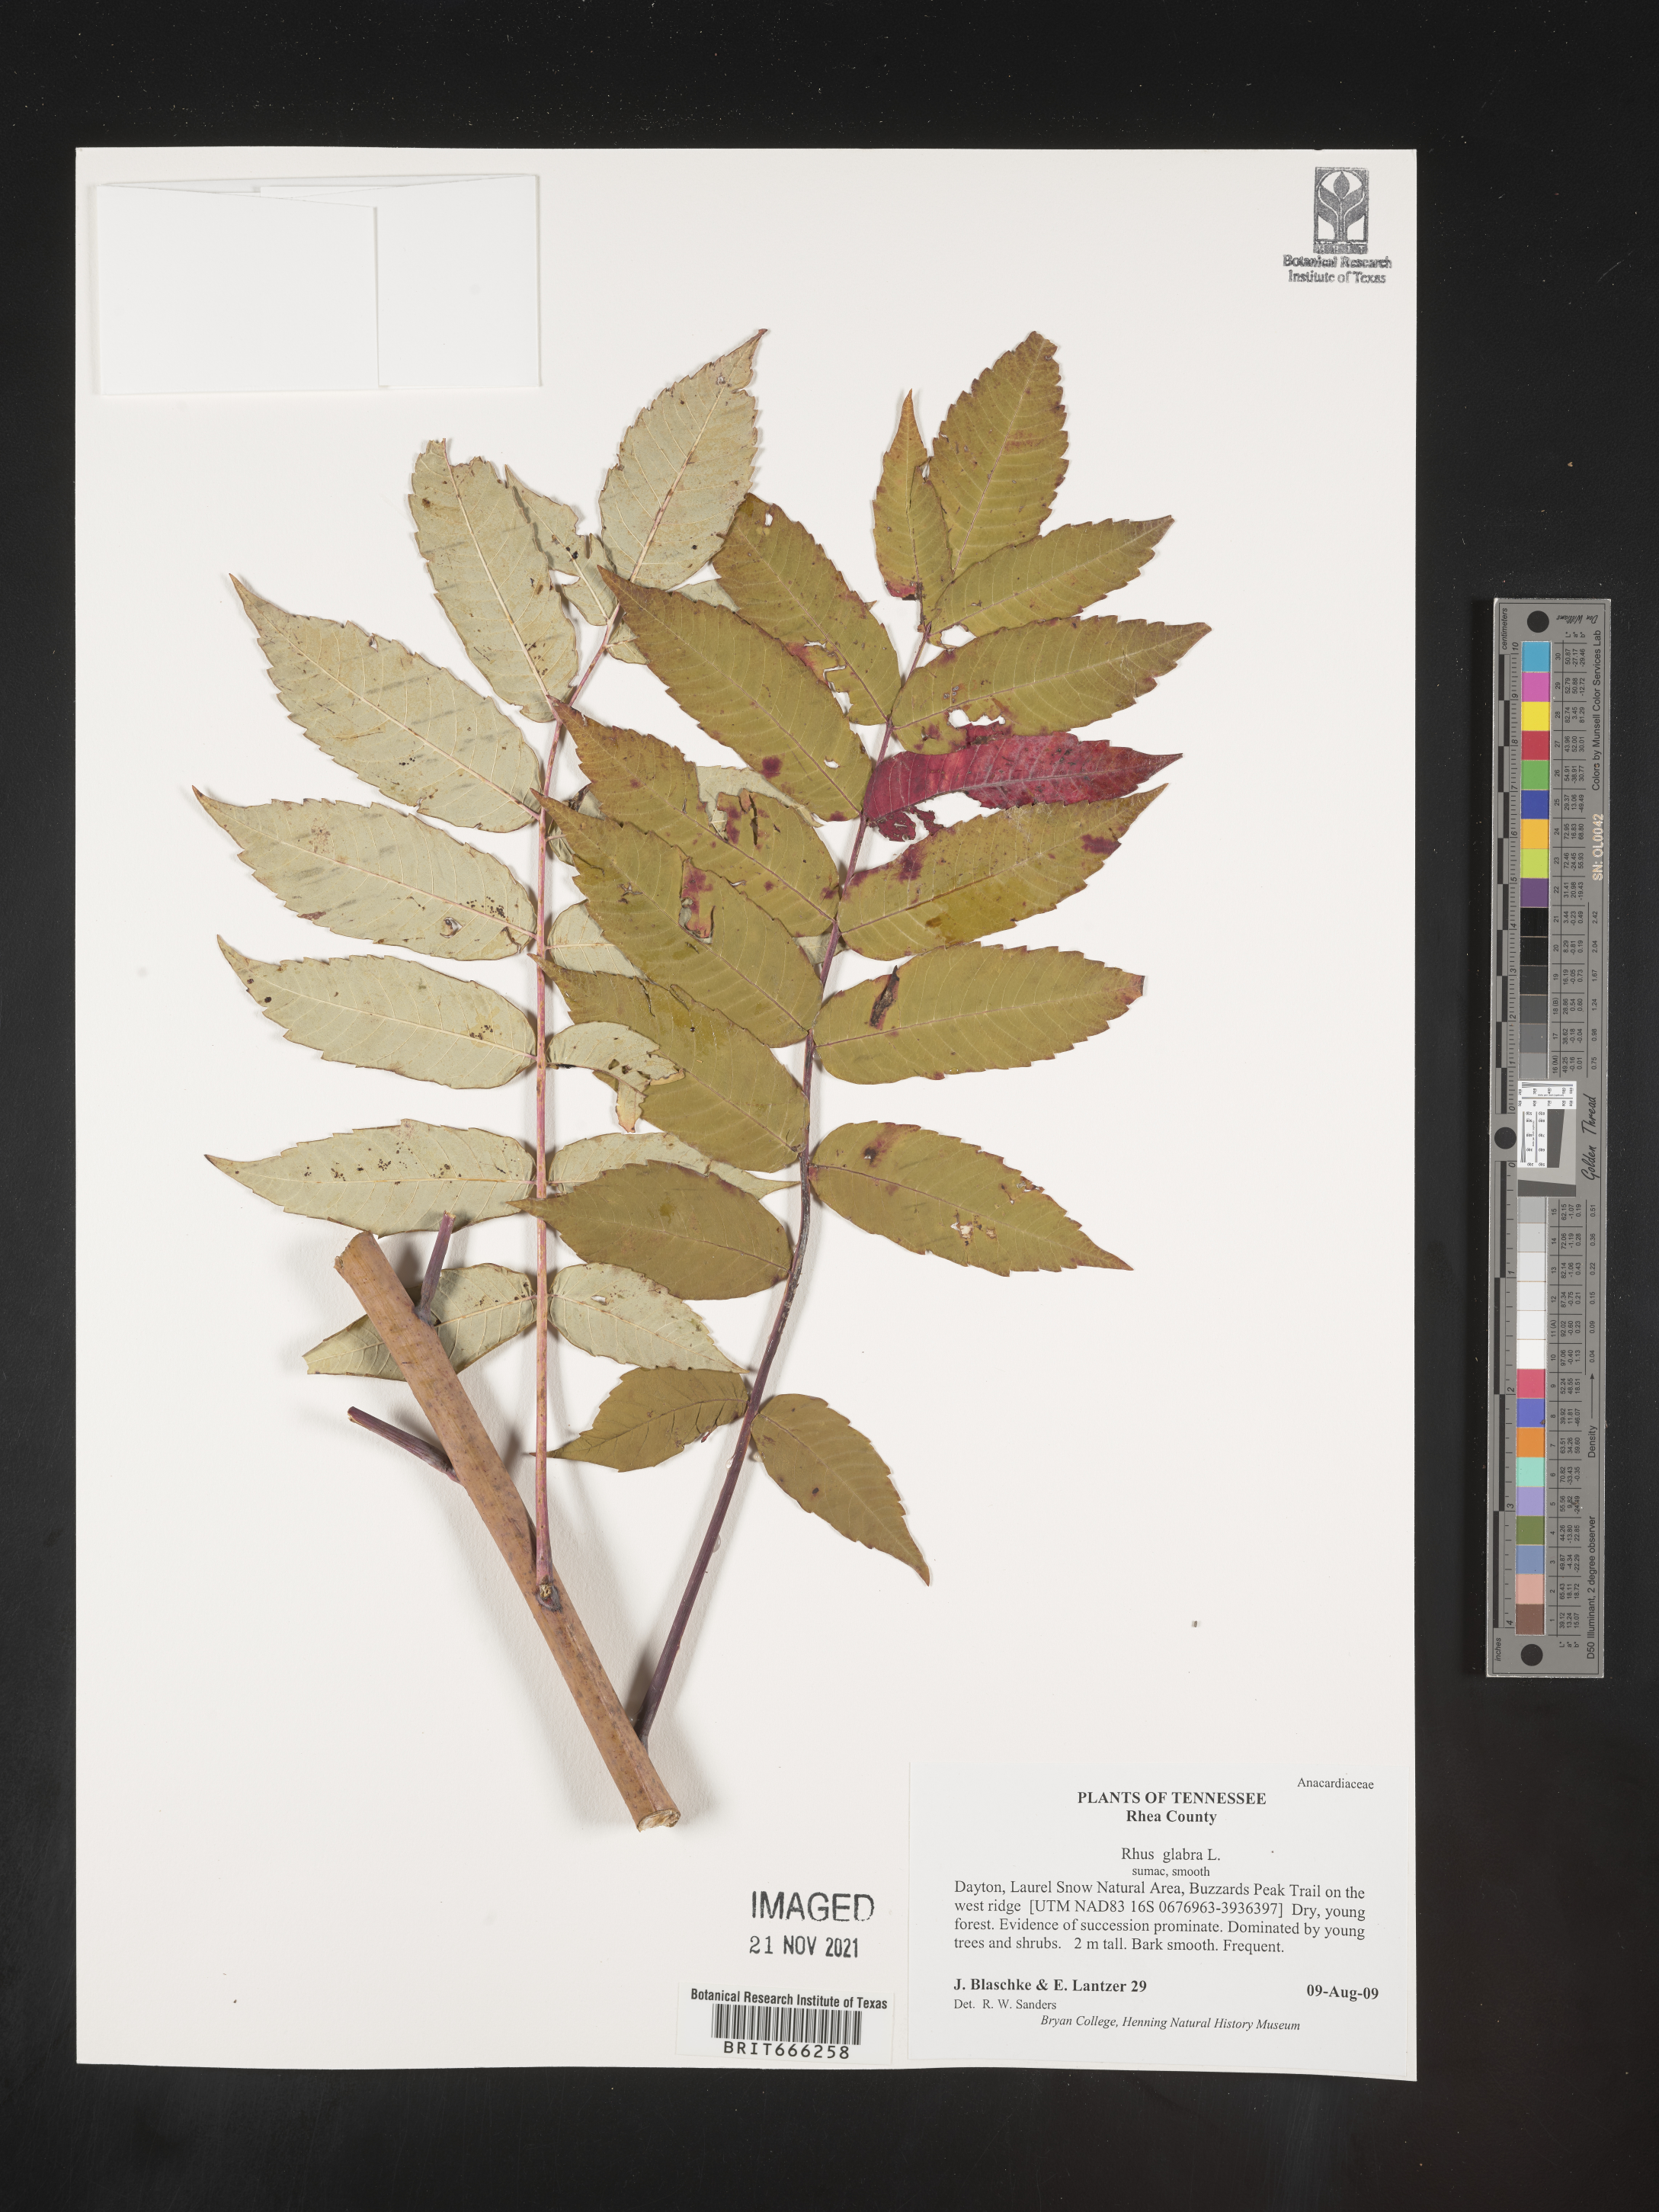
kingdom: Plantae
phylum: Tracheophyta
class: Magnoliopsida
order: Sapindales
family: Anacardiaceae
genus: Rhus
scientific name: Rhus glabra
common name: Scarlet sumac
